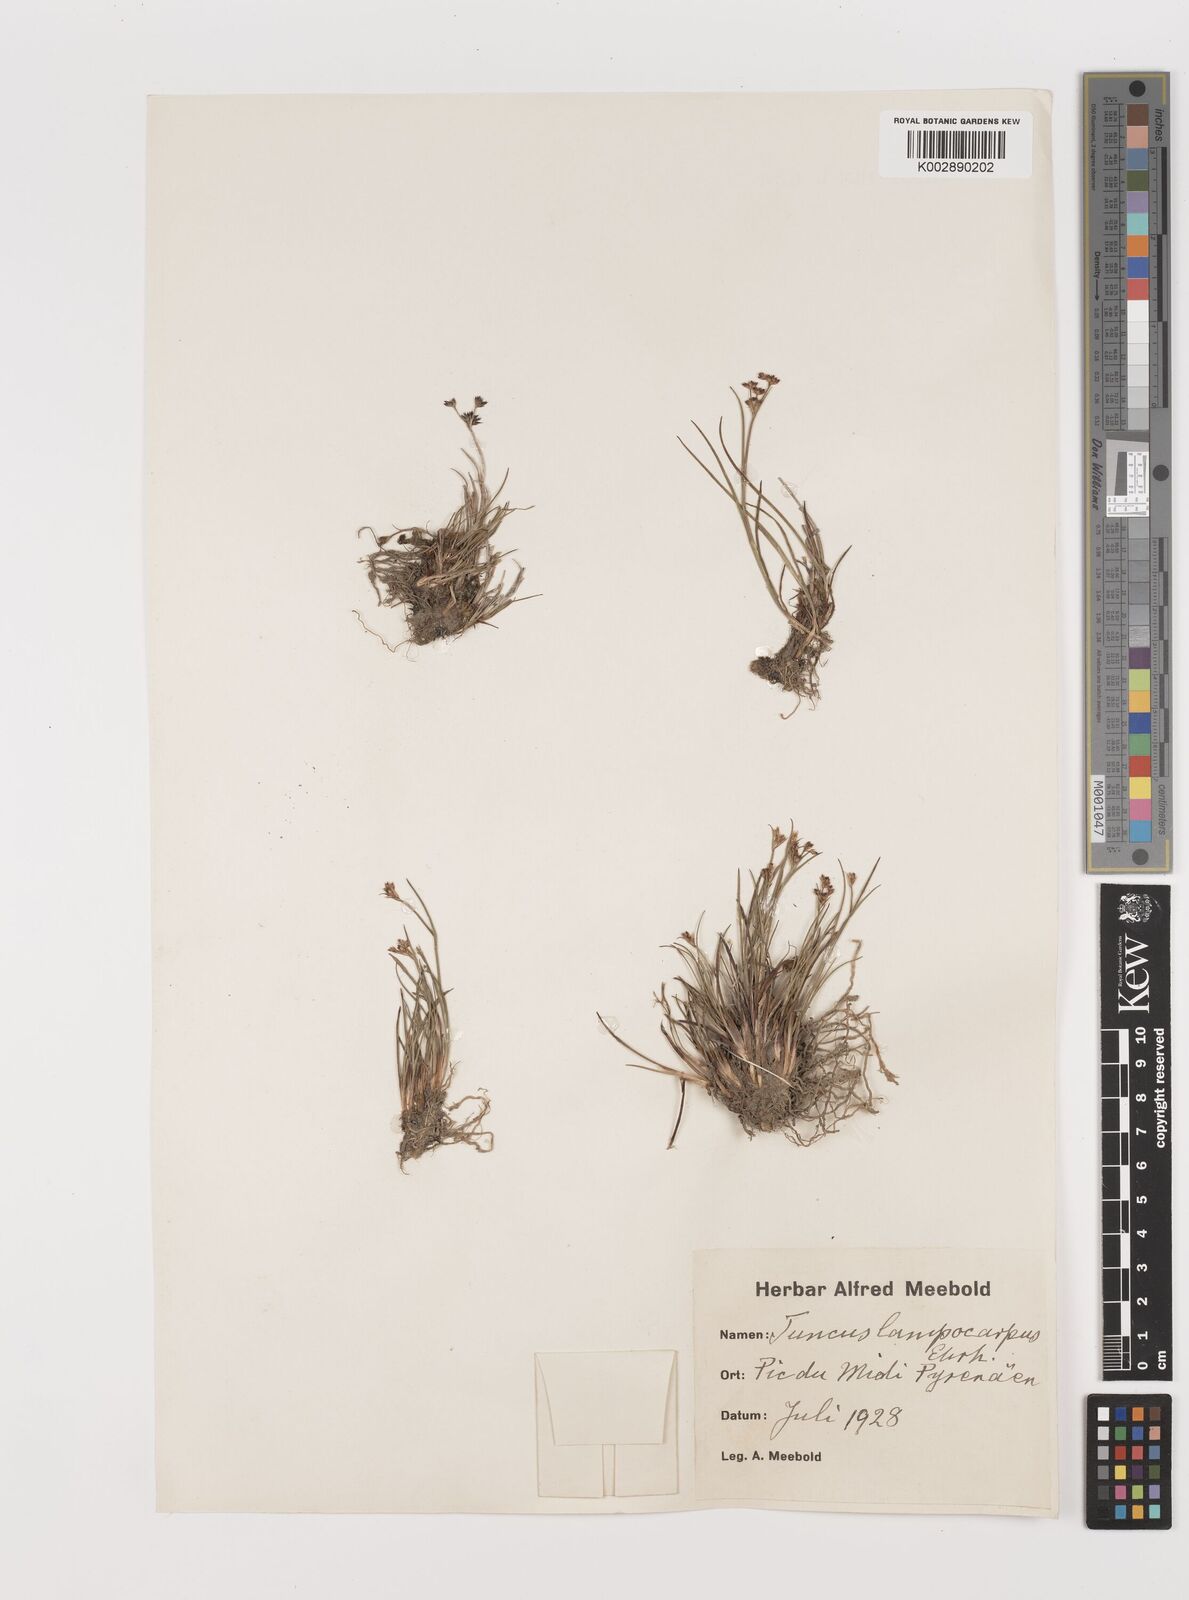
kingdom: Plantae
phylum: Tracheophyta
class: Liliopsida
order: Poales
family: Juncaceae
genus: Juncus
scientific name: Juncus articulatus
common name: Jointed rush
